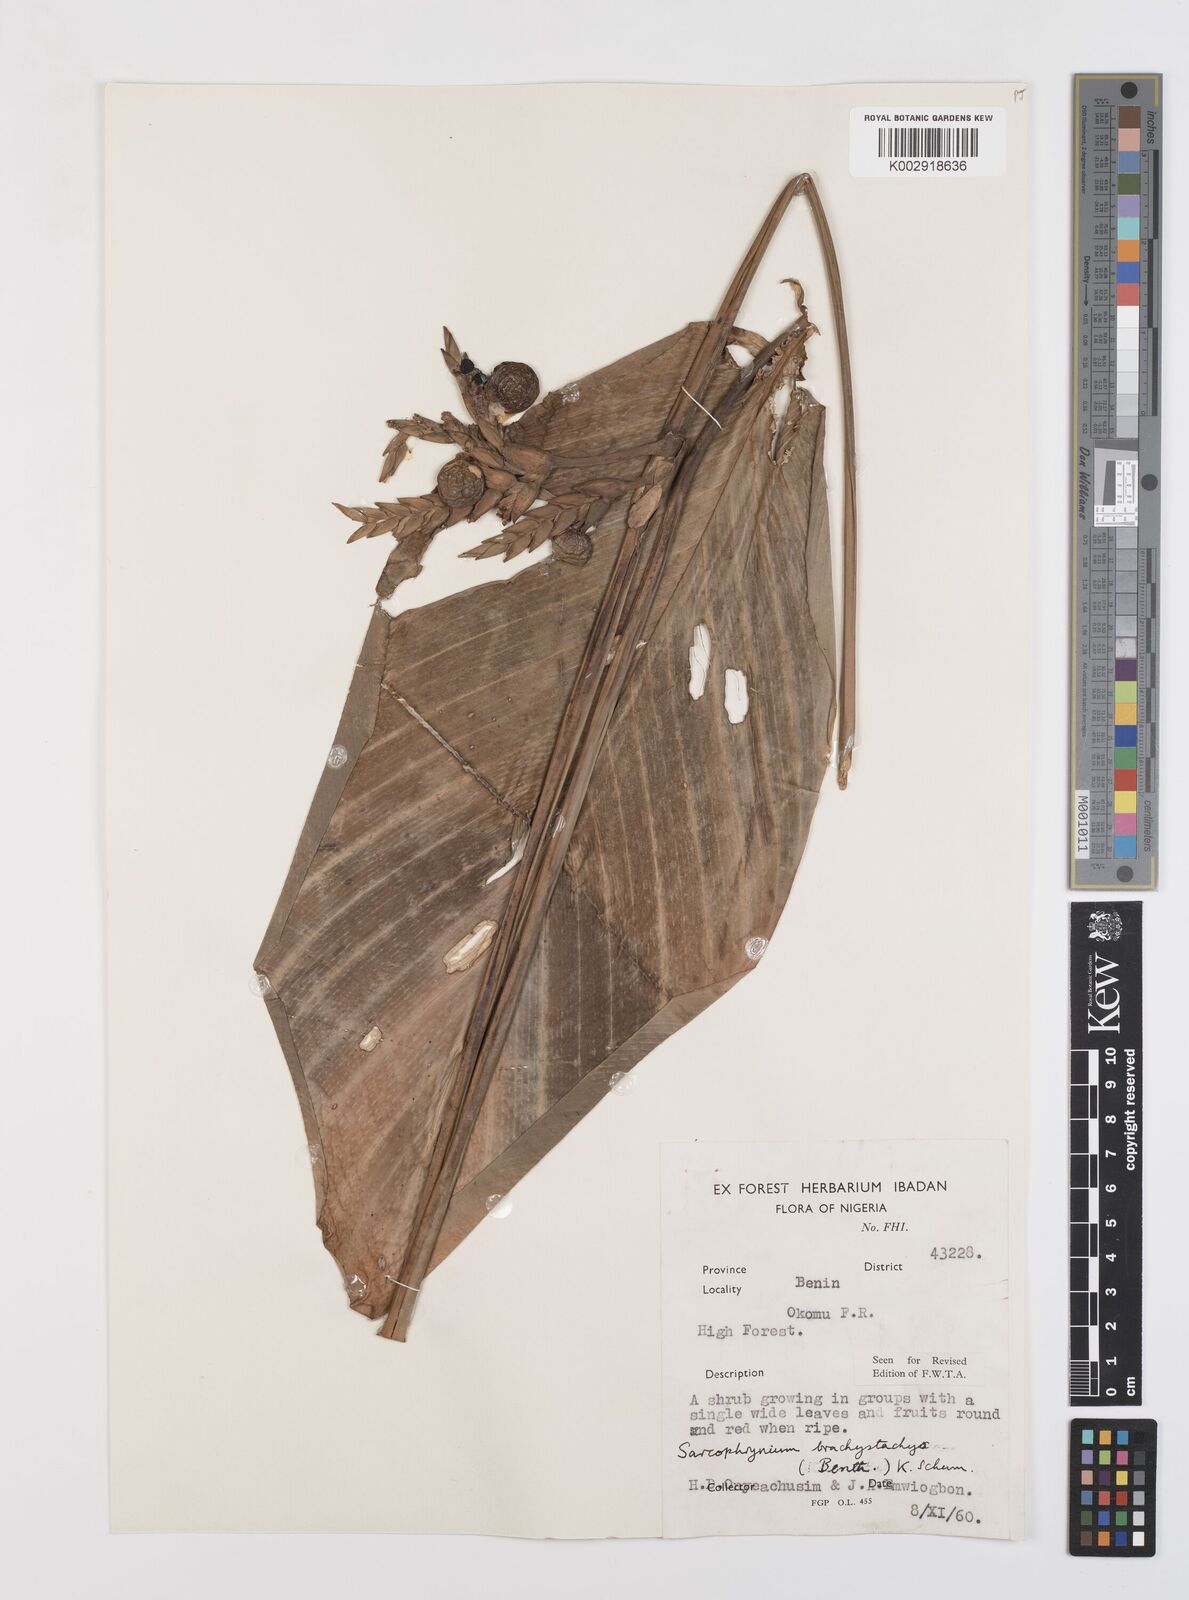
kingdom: Plantae
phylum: Tracheophyta
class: Liliopsida
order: Zingiberales
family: Marantaceae
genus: Sarcophrynium
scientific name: Sarcophrynium brachystachyum
